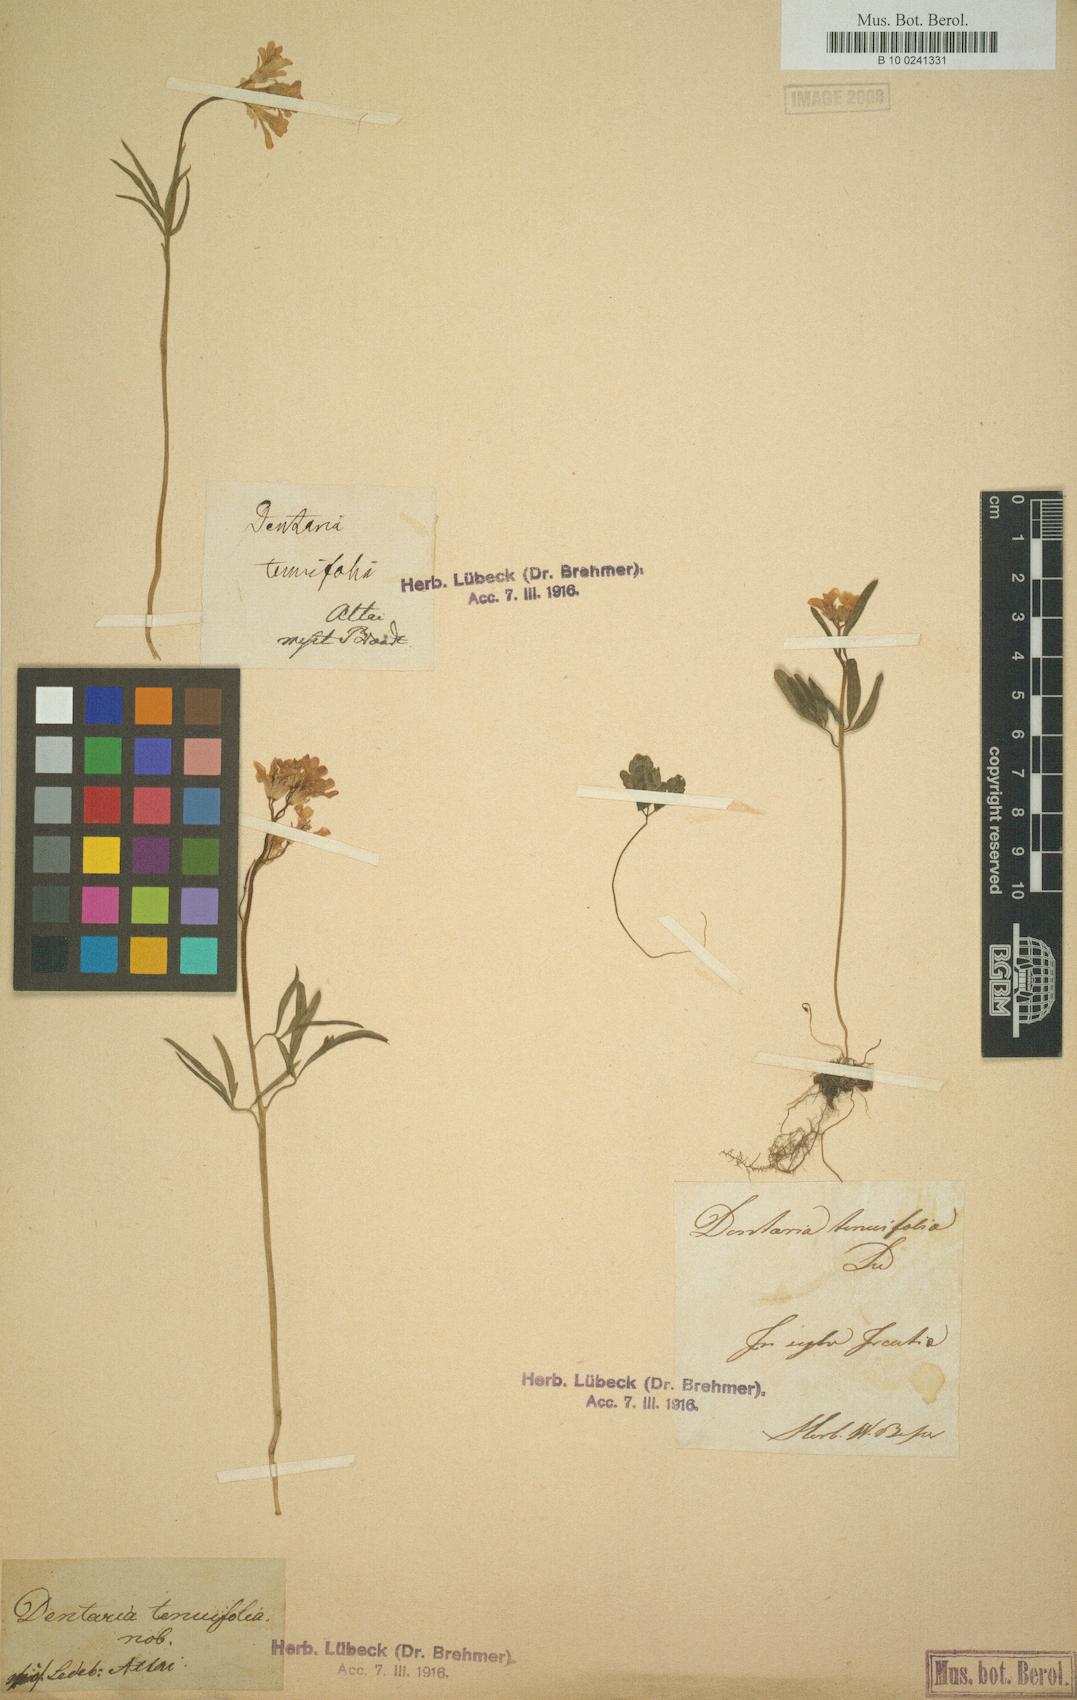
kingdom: Plantae
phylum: Tracheophyta
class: Magnoliopsida
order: Brassicales
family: Brassicaceae
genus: Cardamine
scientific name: Cardamine trifida
